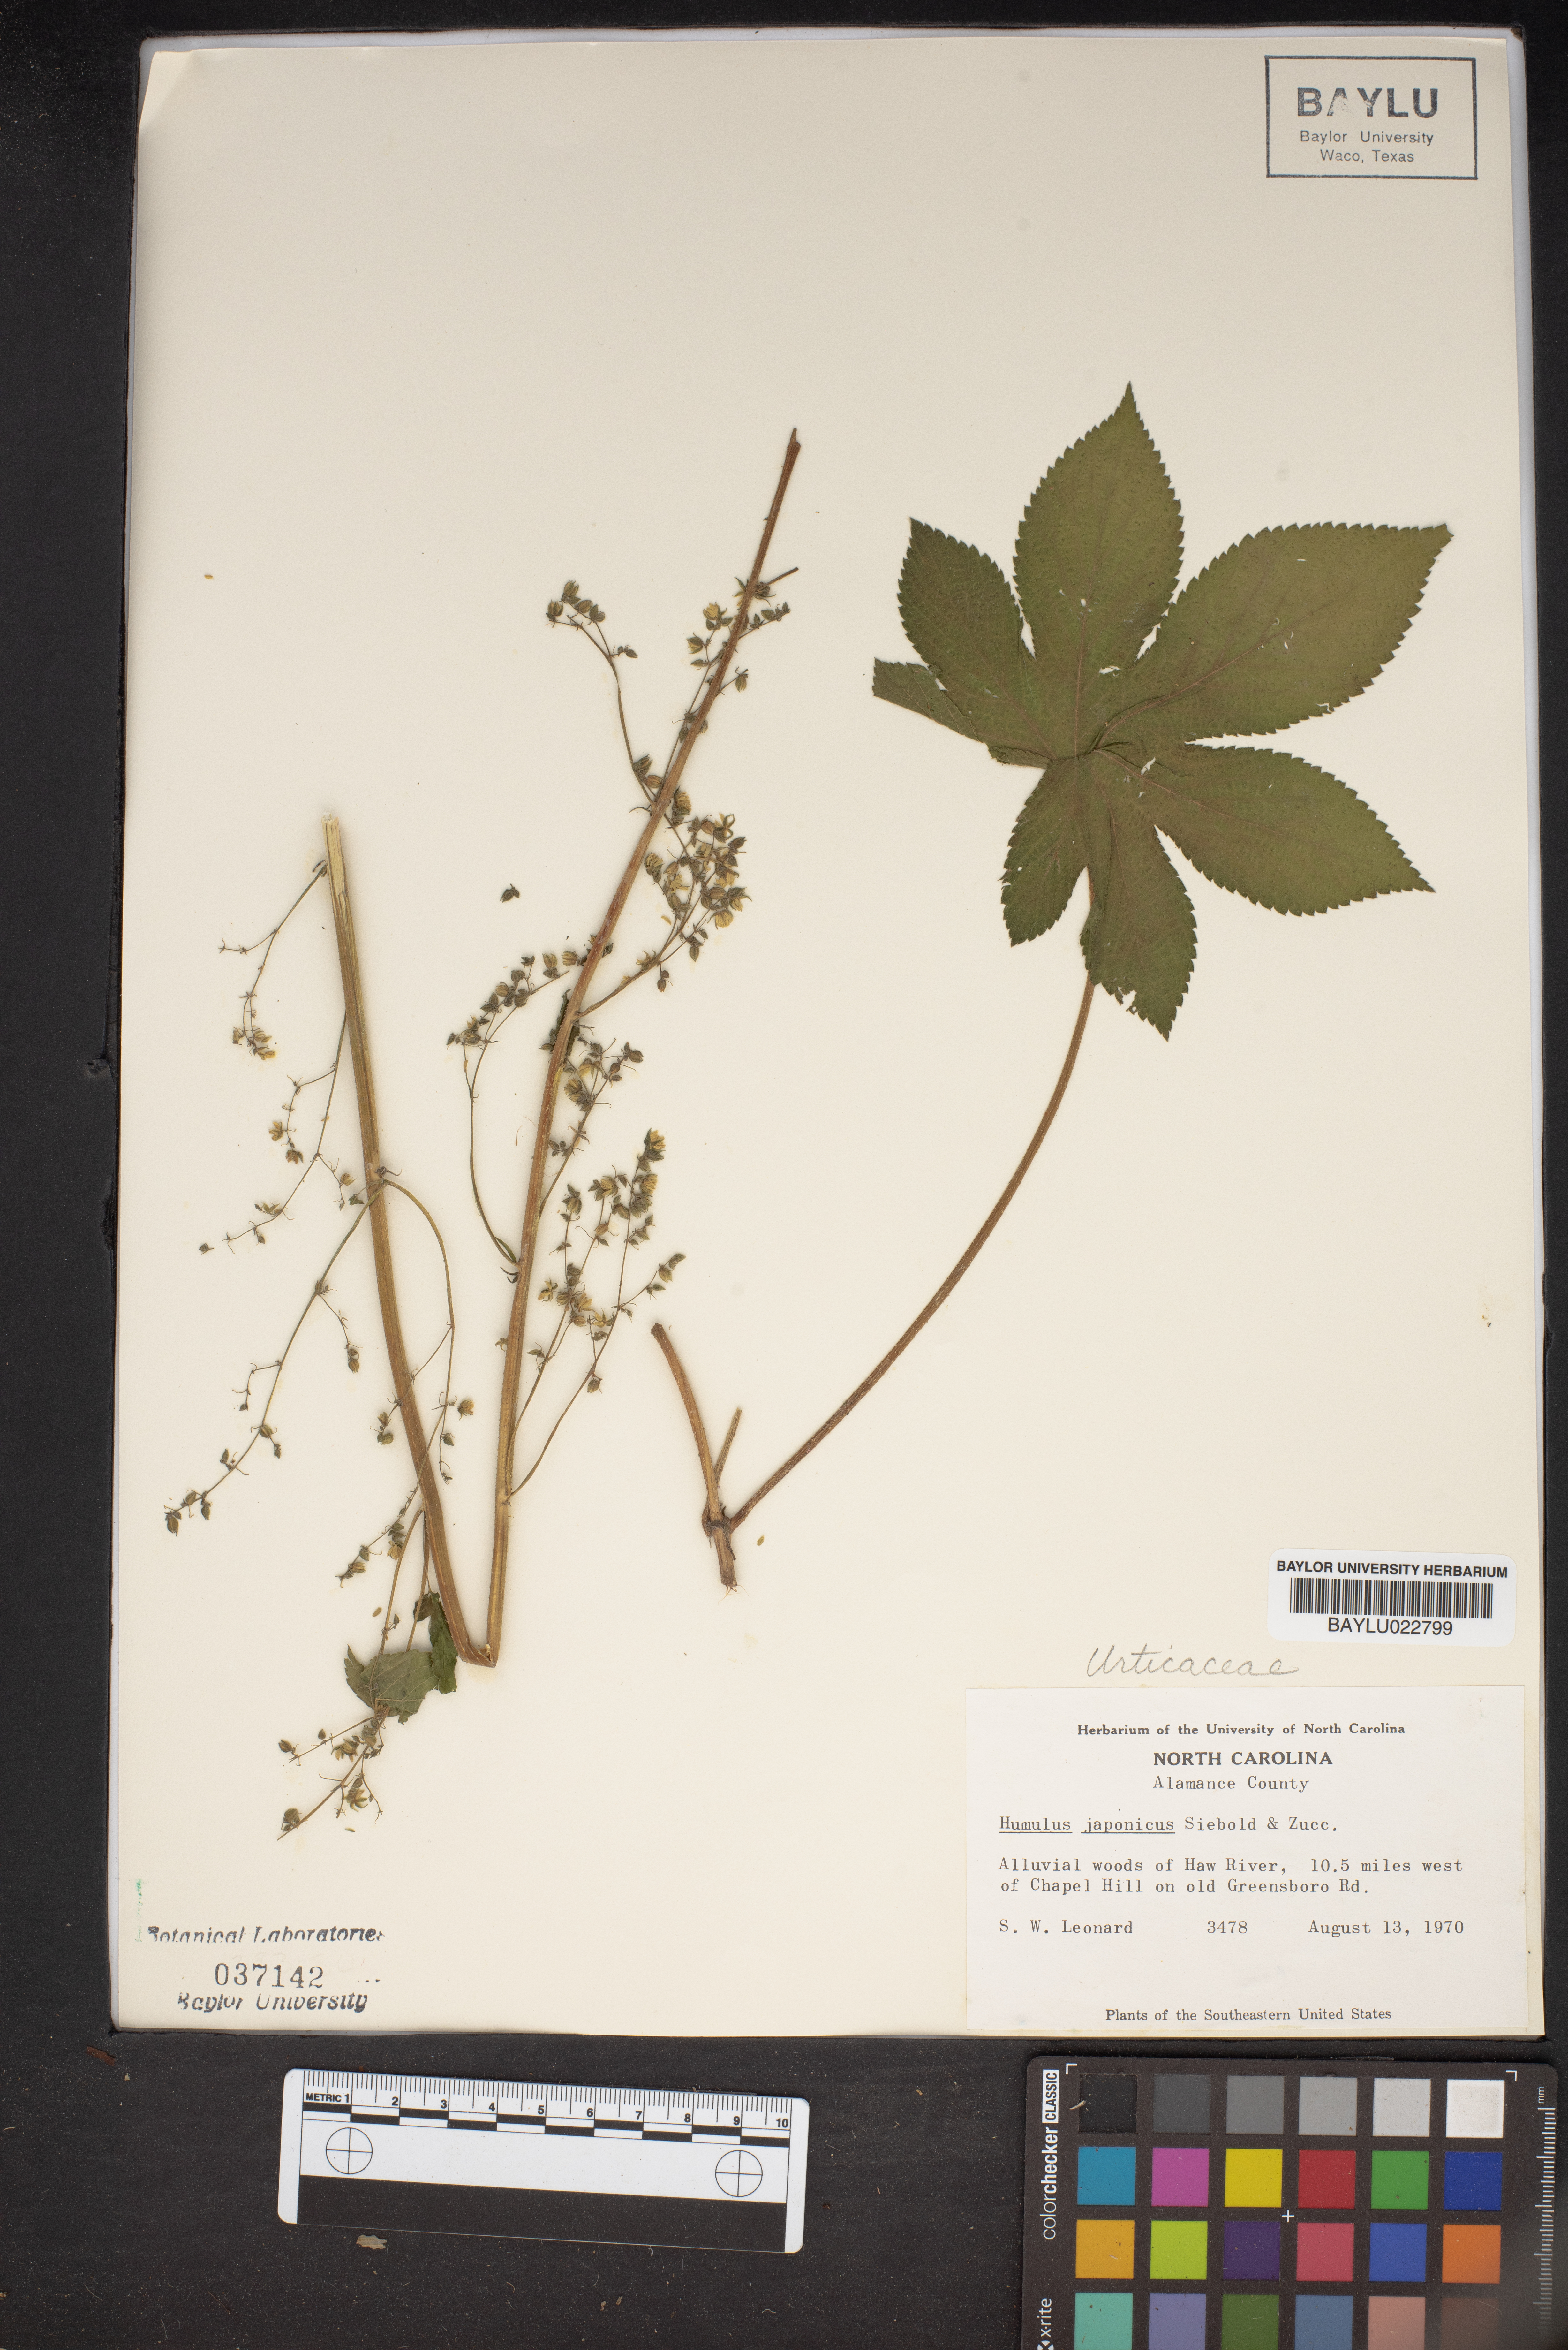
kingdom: Plantae
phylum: Tracheophyta
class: Magnoliopsida
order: Rosales
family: Cannabaceae
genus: Humulus
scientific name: Humulus scandens
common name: Japanese hop
